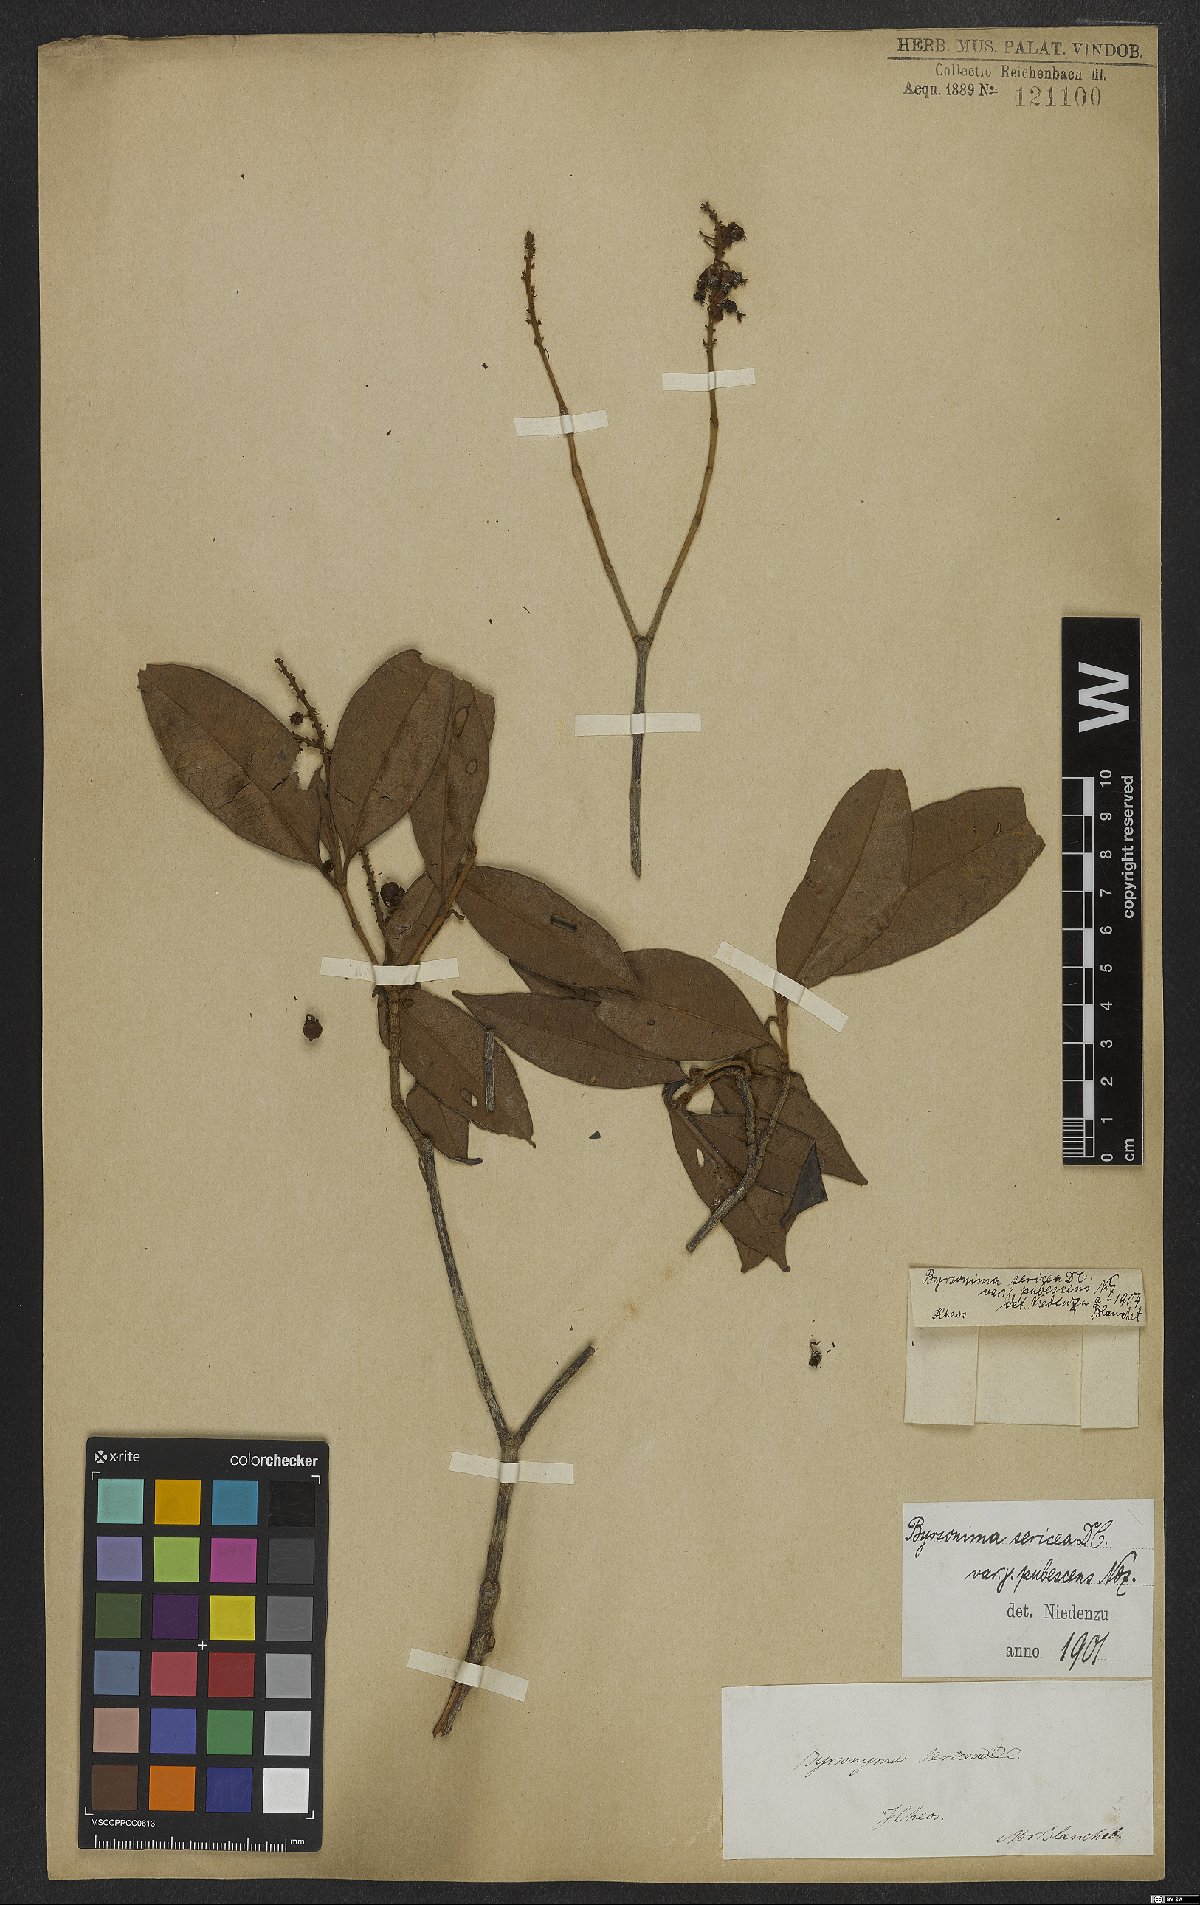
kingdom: Plantae
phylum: Tracheophyta
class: Magnoliopsida
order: Malpighiales
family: Malpighiaceae
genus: Byrsonima
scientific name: Byrsonima sericea
